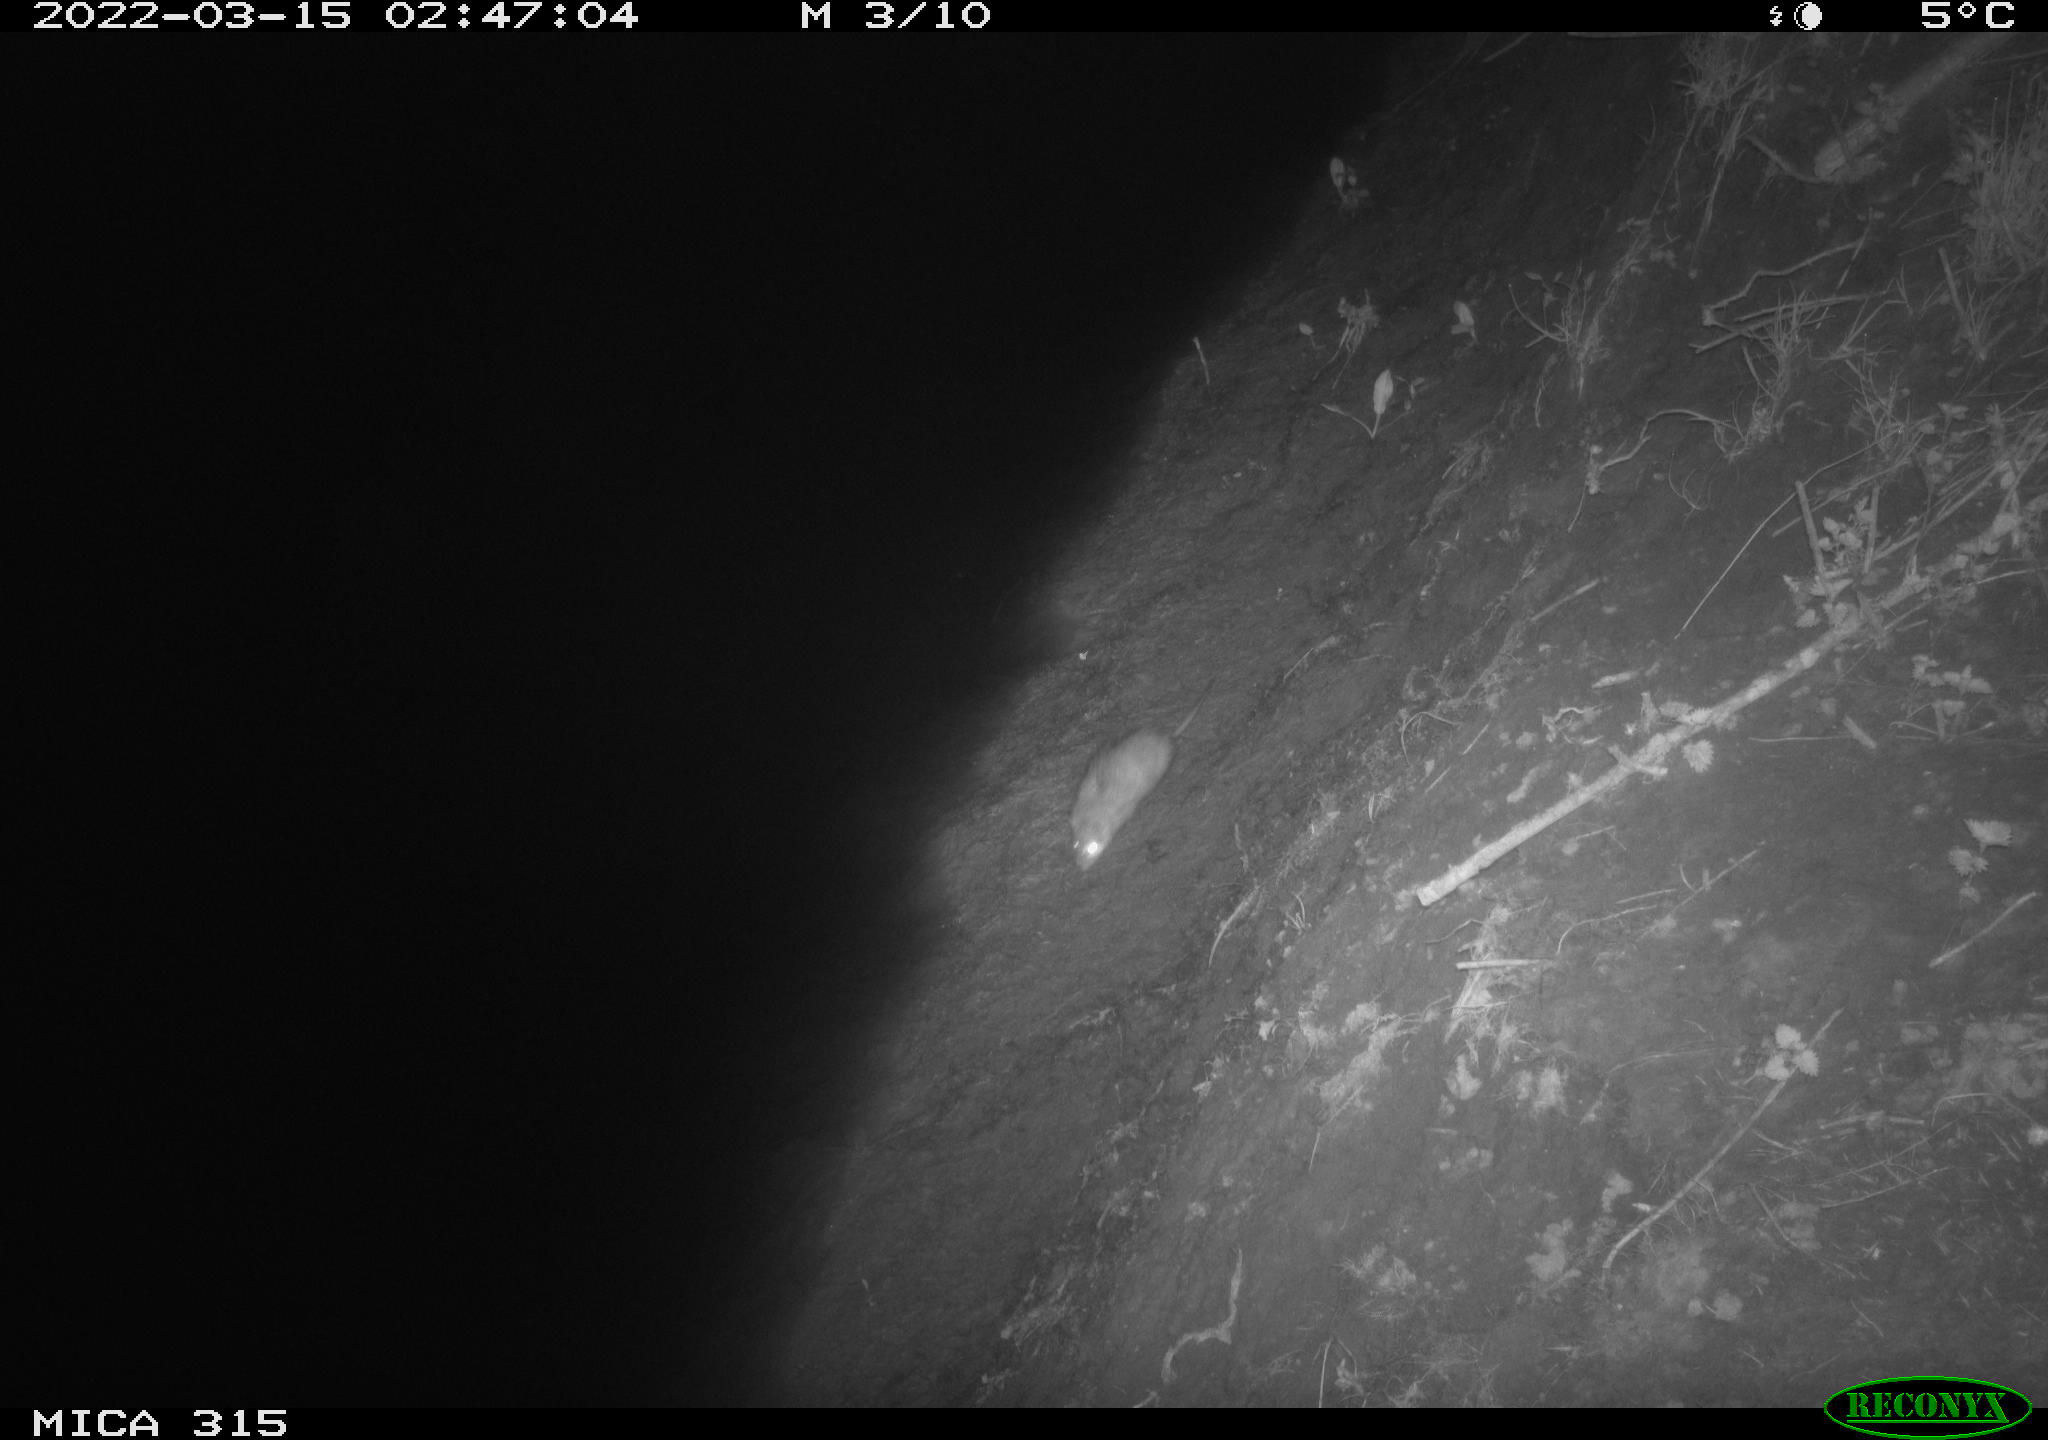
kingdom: Animalia
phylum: Chordata
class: Mammalia
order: Rodentia
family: Muridae
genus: Rattus
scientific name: Rattus norvegicus
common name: Brown rat
